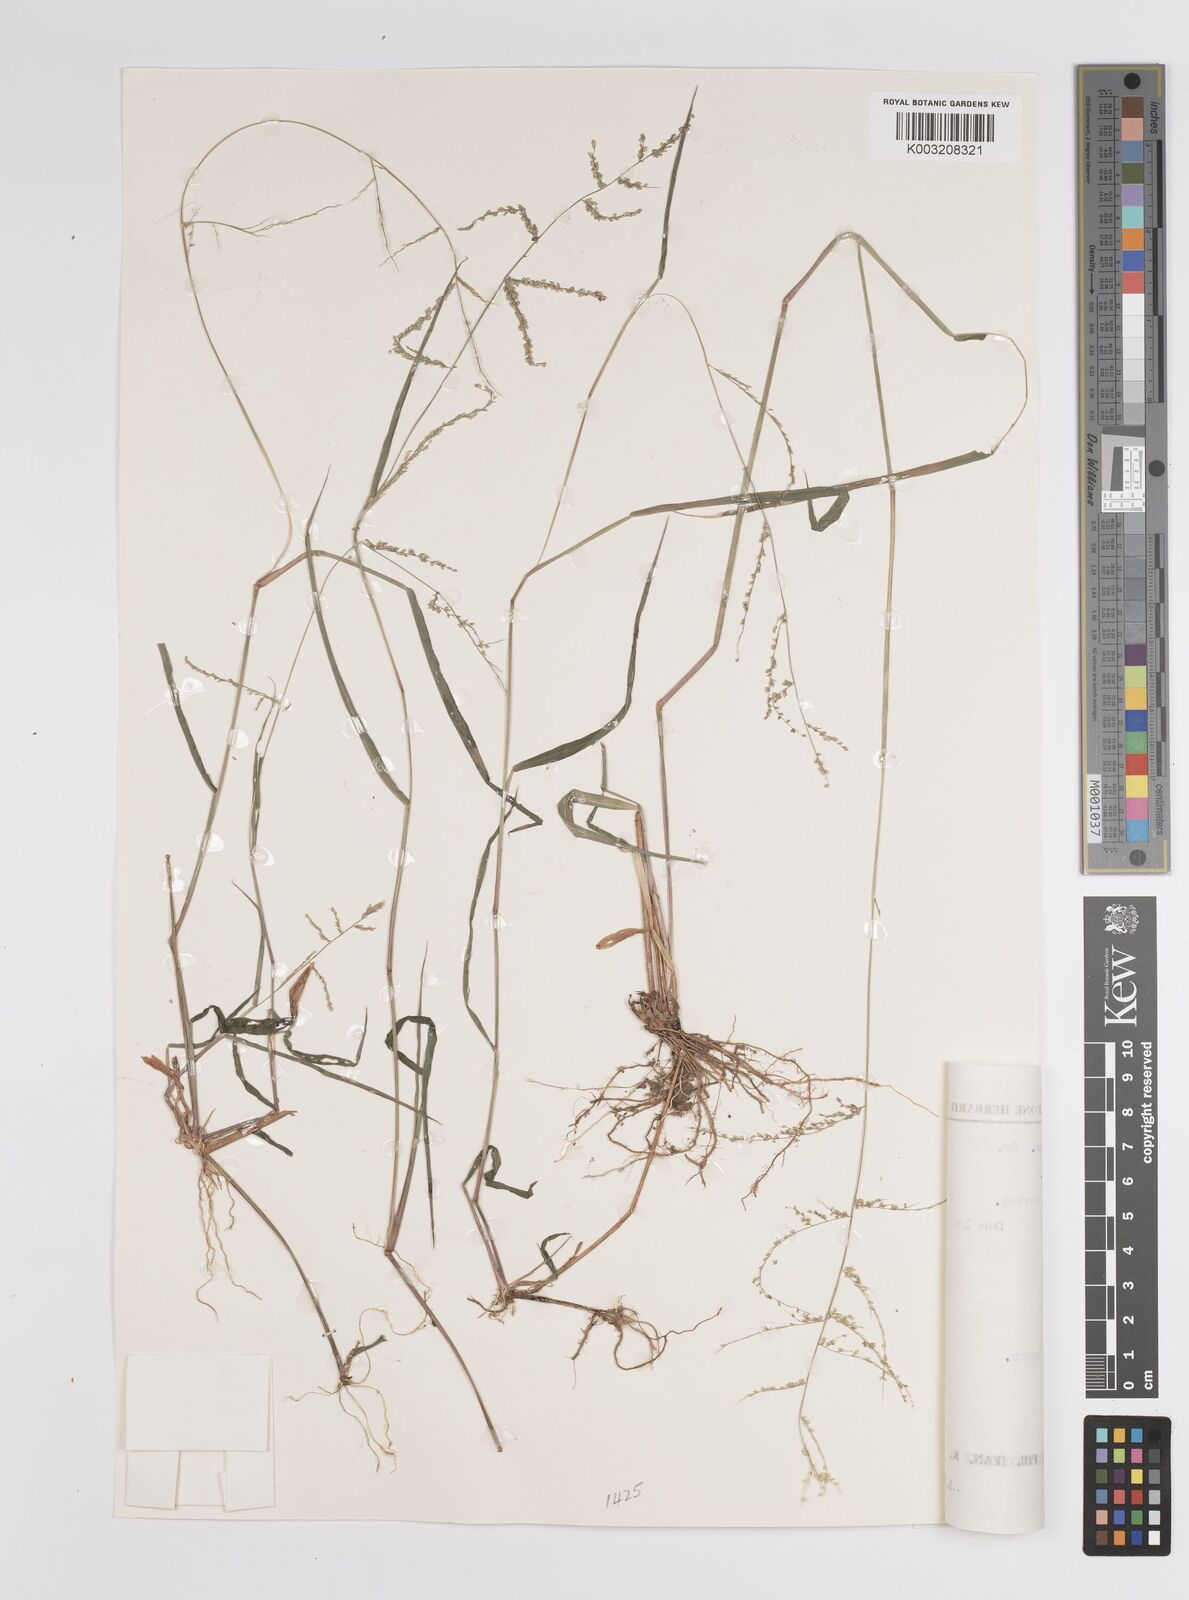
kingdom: Plantae
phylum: Tracheophyta
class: Liliopsida
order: Poales
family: Poaceae
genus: Steinchisma
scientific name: Steinchisma laxum
